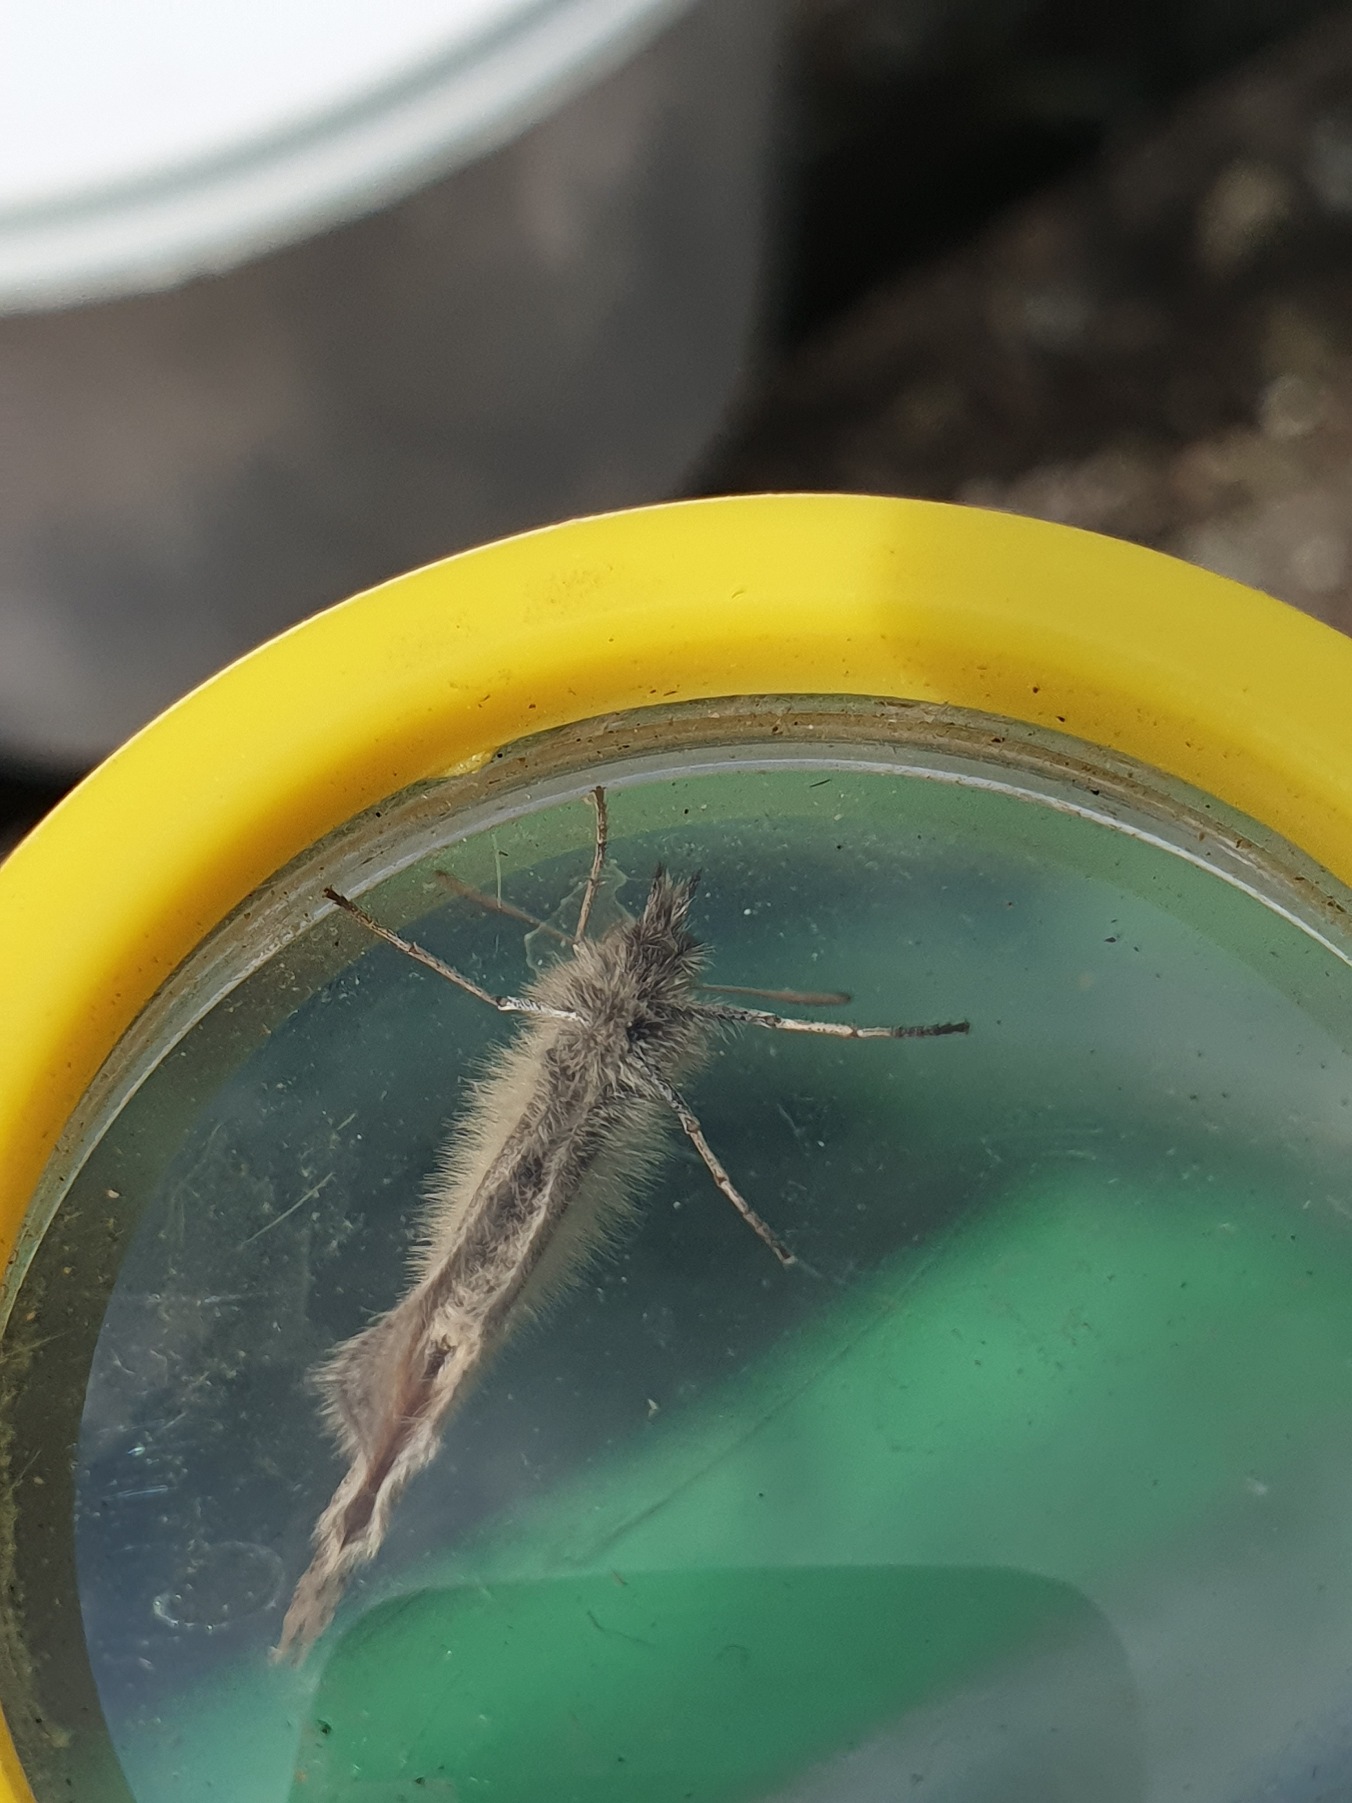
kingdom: Animalia
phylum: Arthropoda
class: Insecta
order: Lepidoptera
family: Nymphalidae
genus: Coenonympha
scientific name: Coenonympha pamphilus
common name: Okkergul randøje
